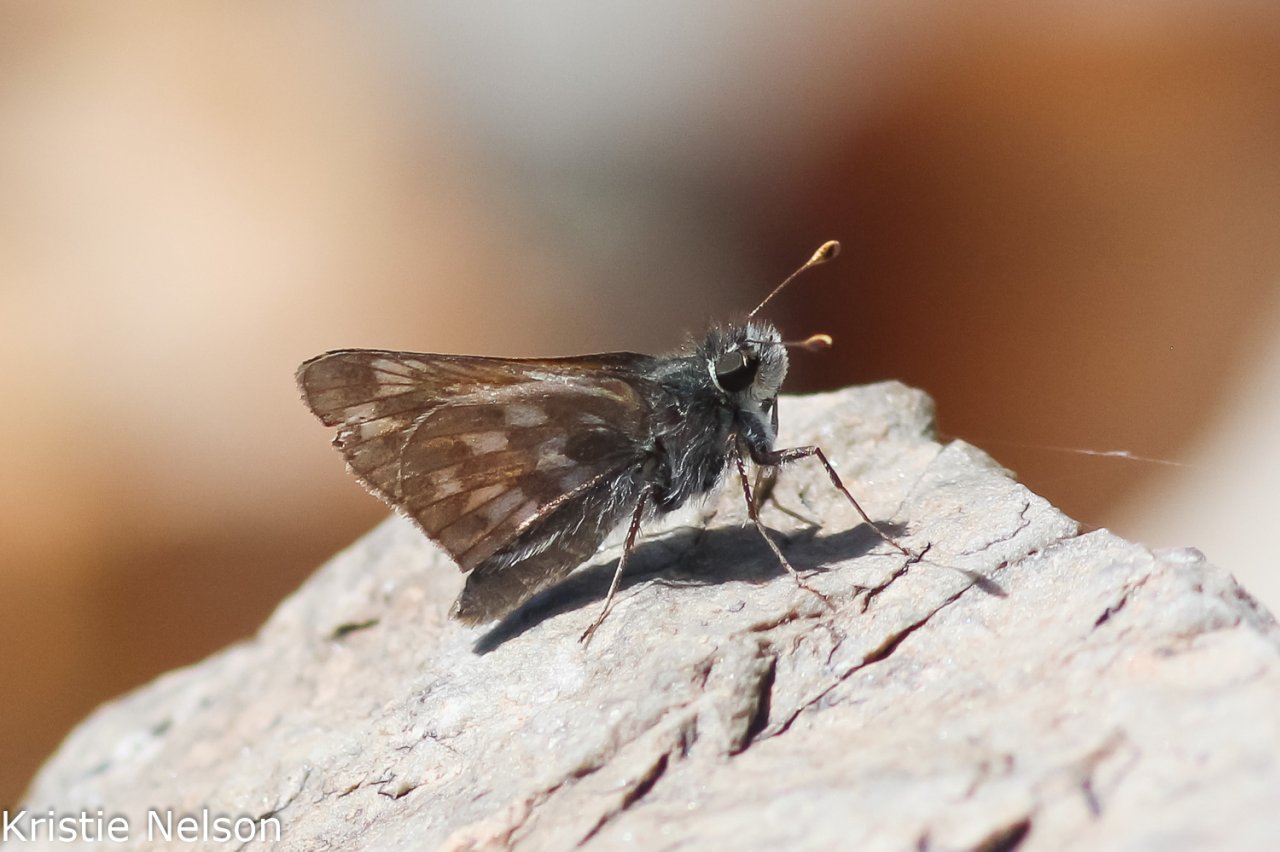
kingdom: Animalia
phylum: Arthropoda
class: Insecta
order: Lepidoptera
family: Hesperiidae
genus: Hesperia
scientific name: Hesperia miriamae
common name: Sierra Skipper
